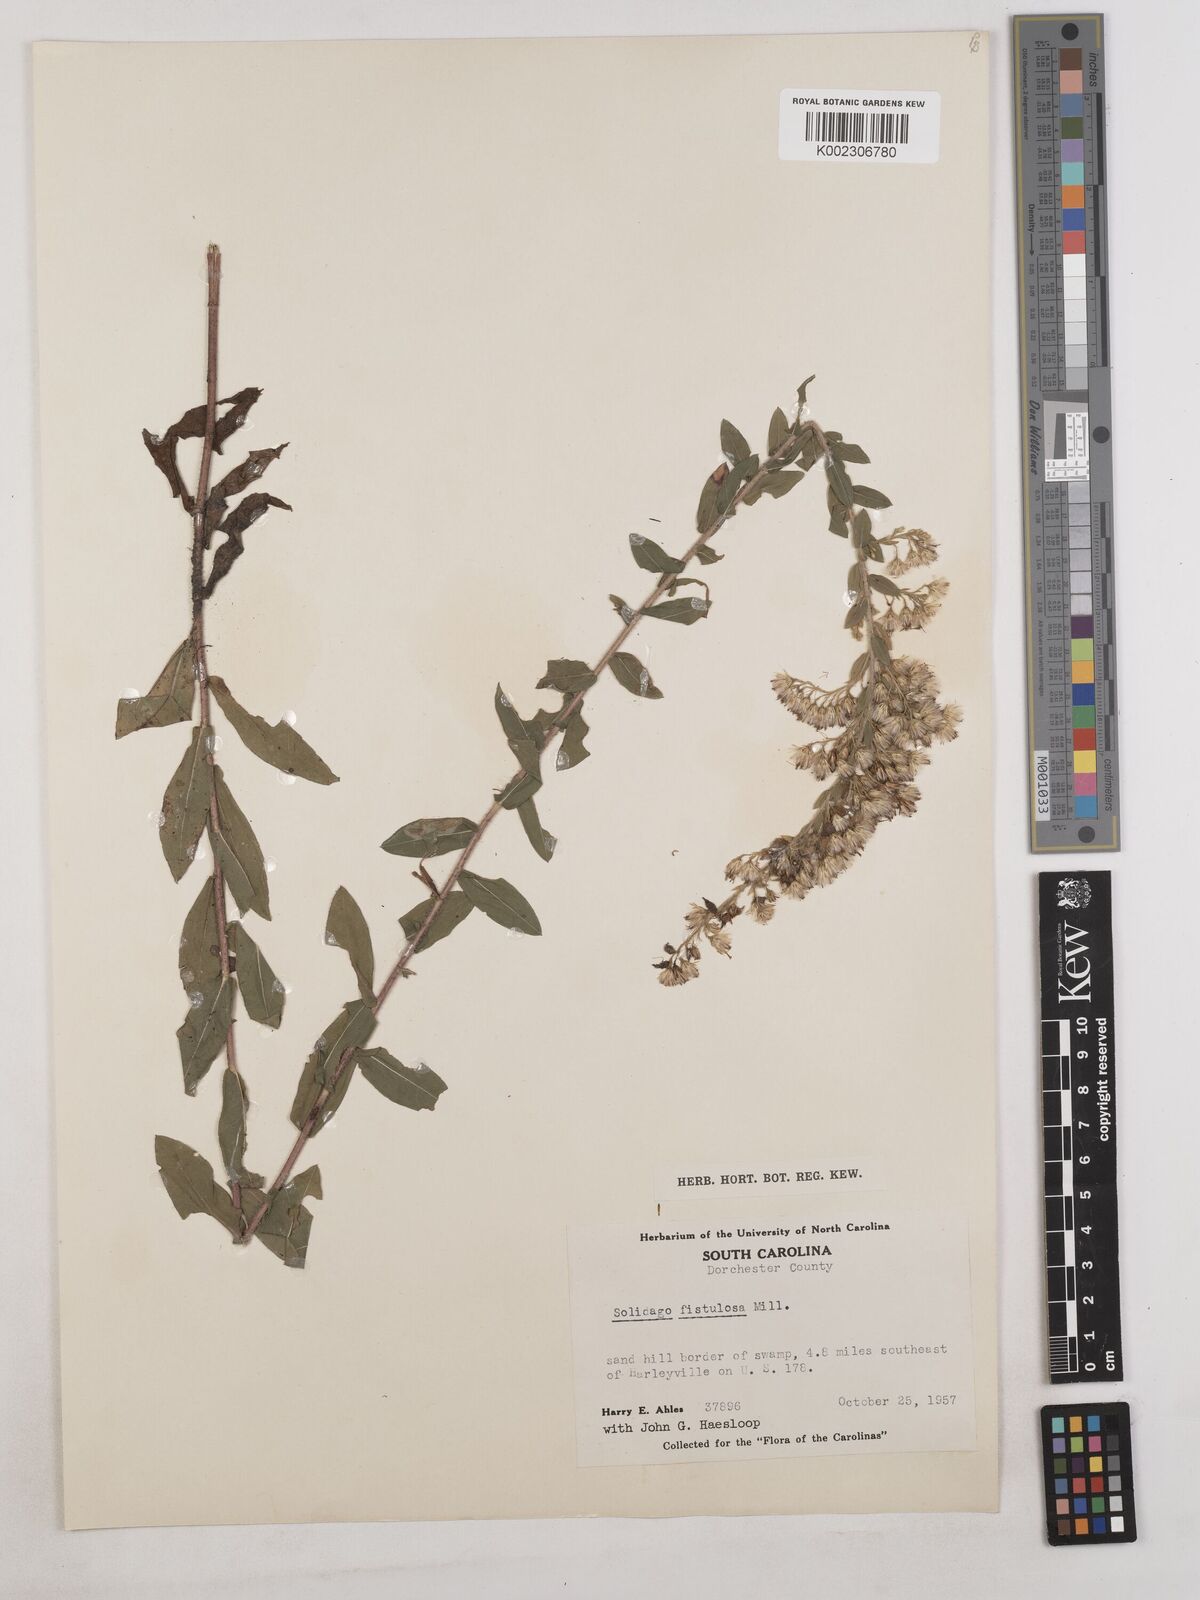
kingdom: Plantae
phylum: Tracheophyta
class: Magnoliopsida
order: Asterales
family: Asteraceae
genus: Solidago
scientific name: Solidago fistulosa
